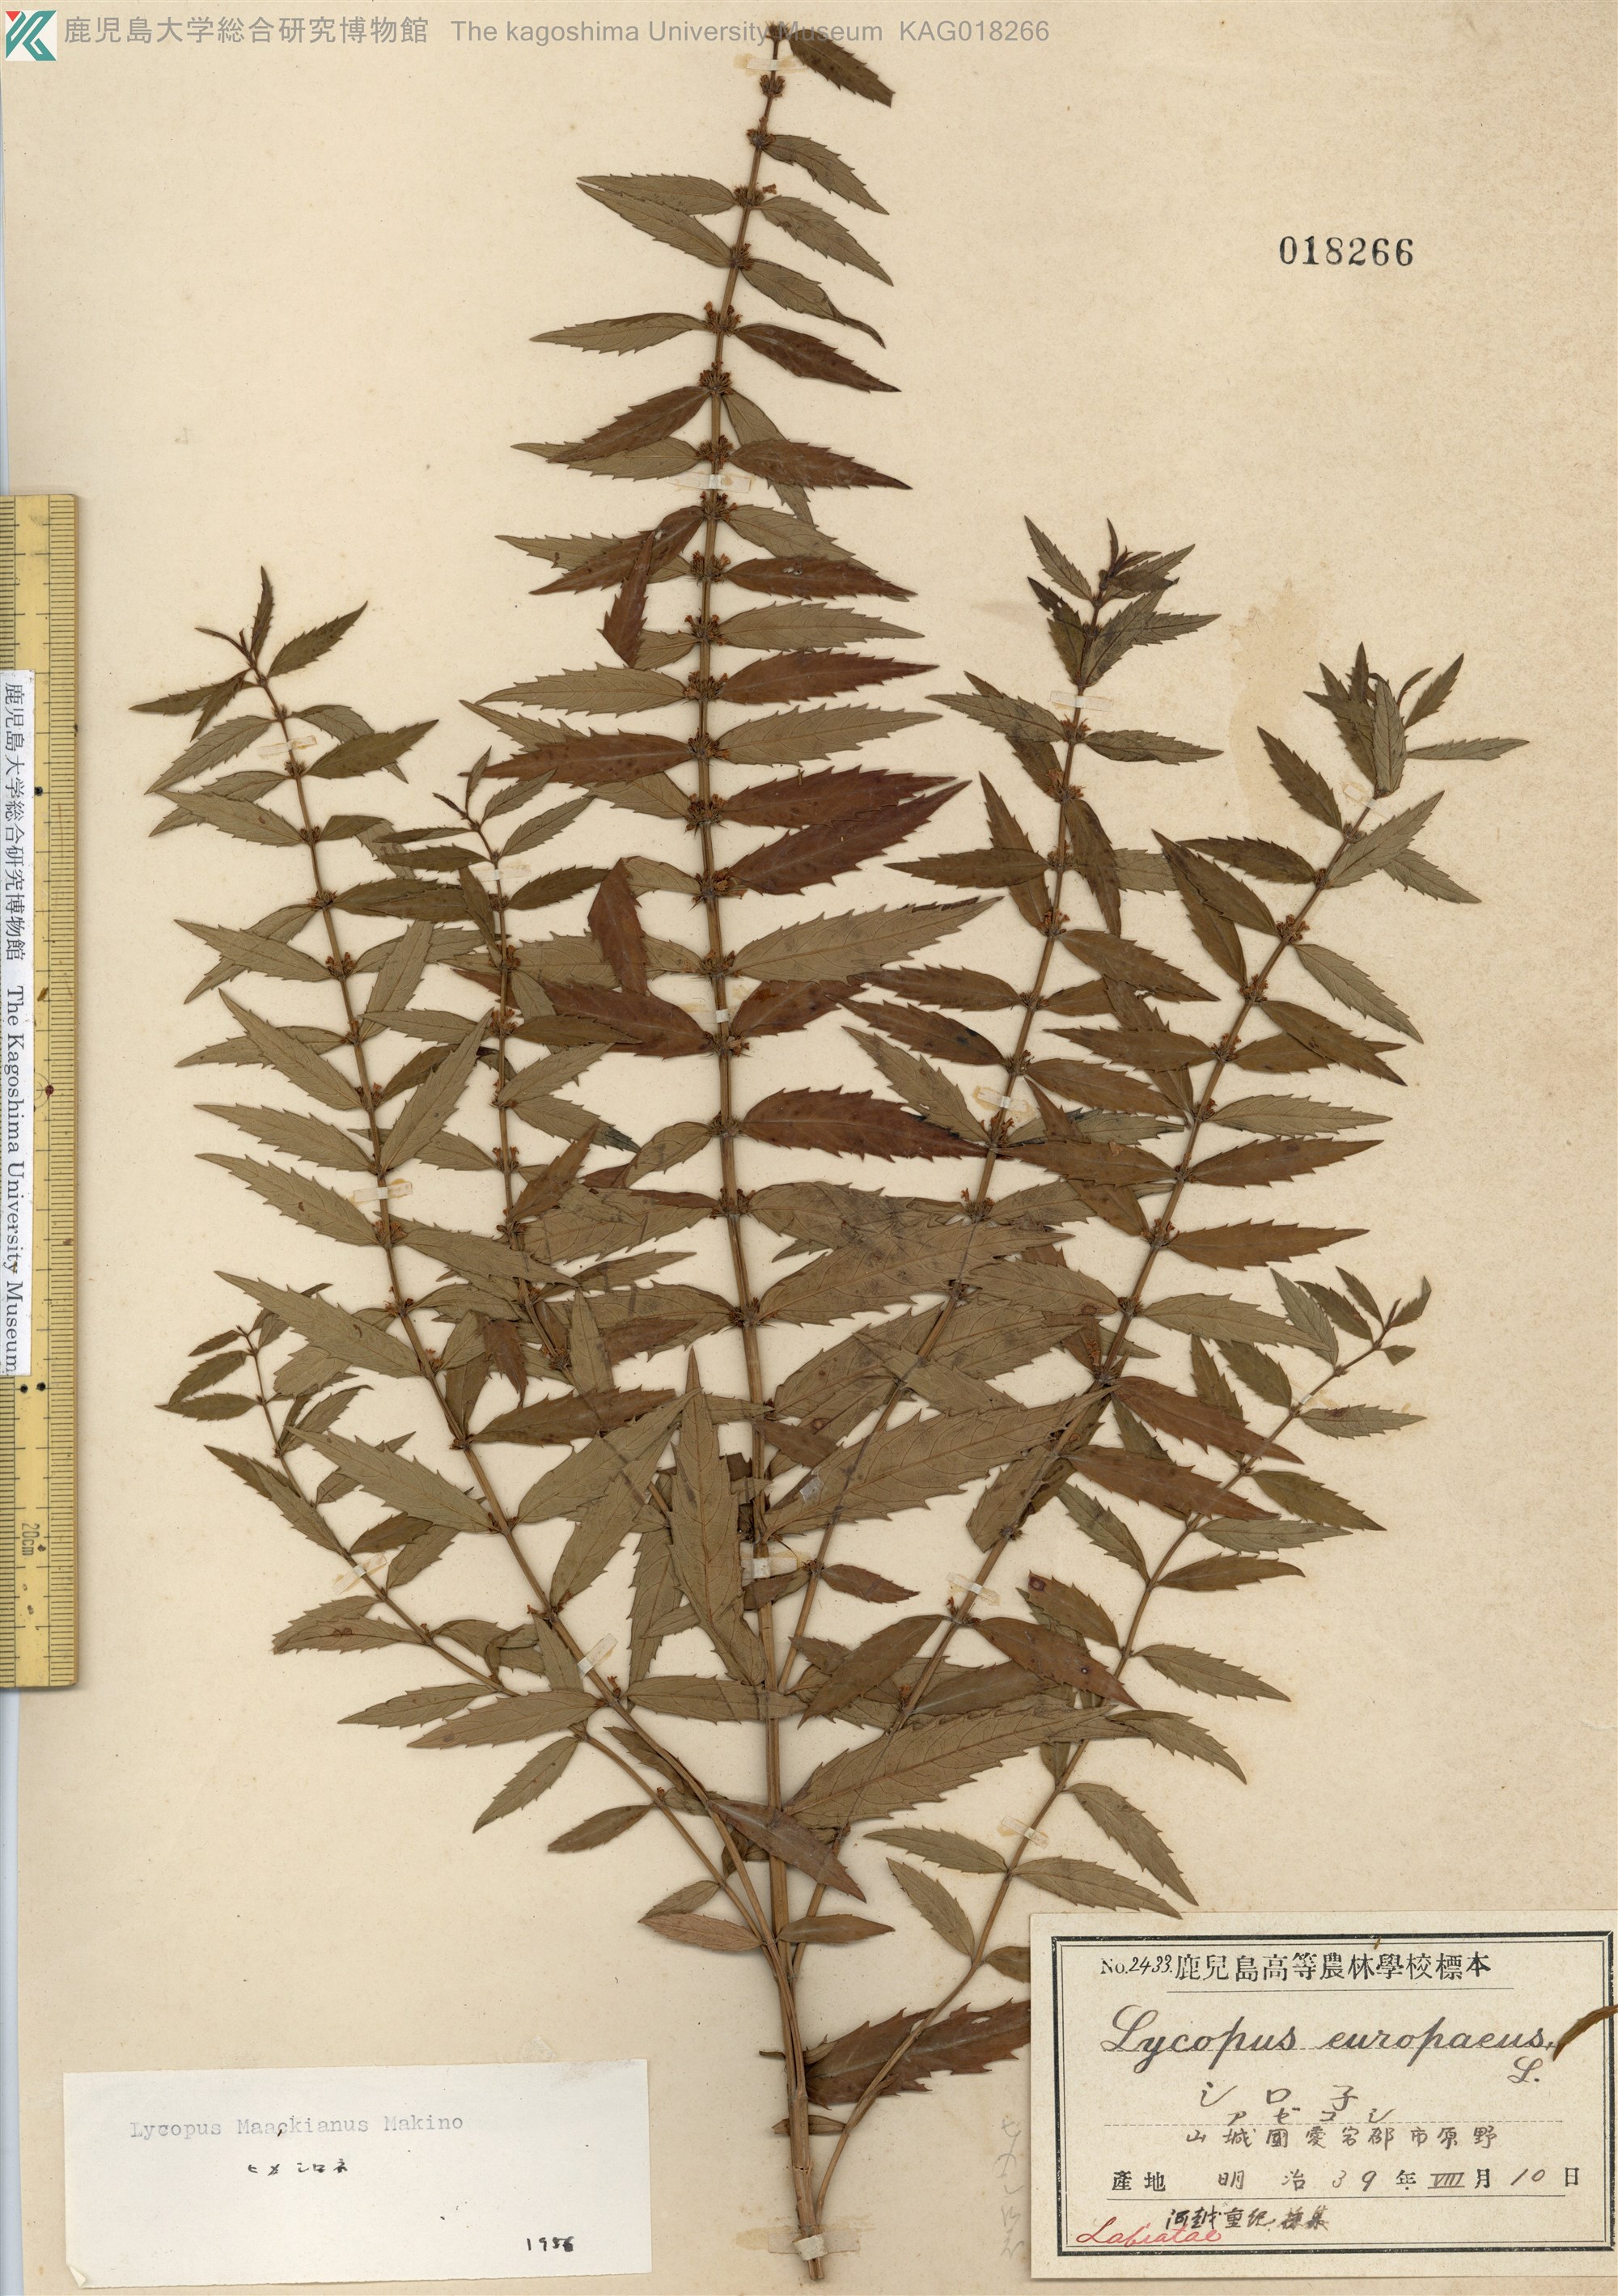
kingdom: Plantae
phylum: Tracheophyta
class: Magnoliopsida
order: Lamiales
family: Lamiaceae
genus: Lycopus
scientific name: Lycopus lucidus
